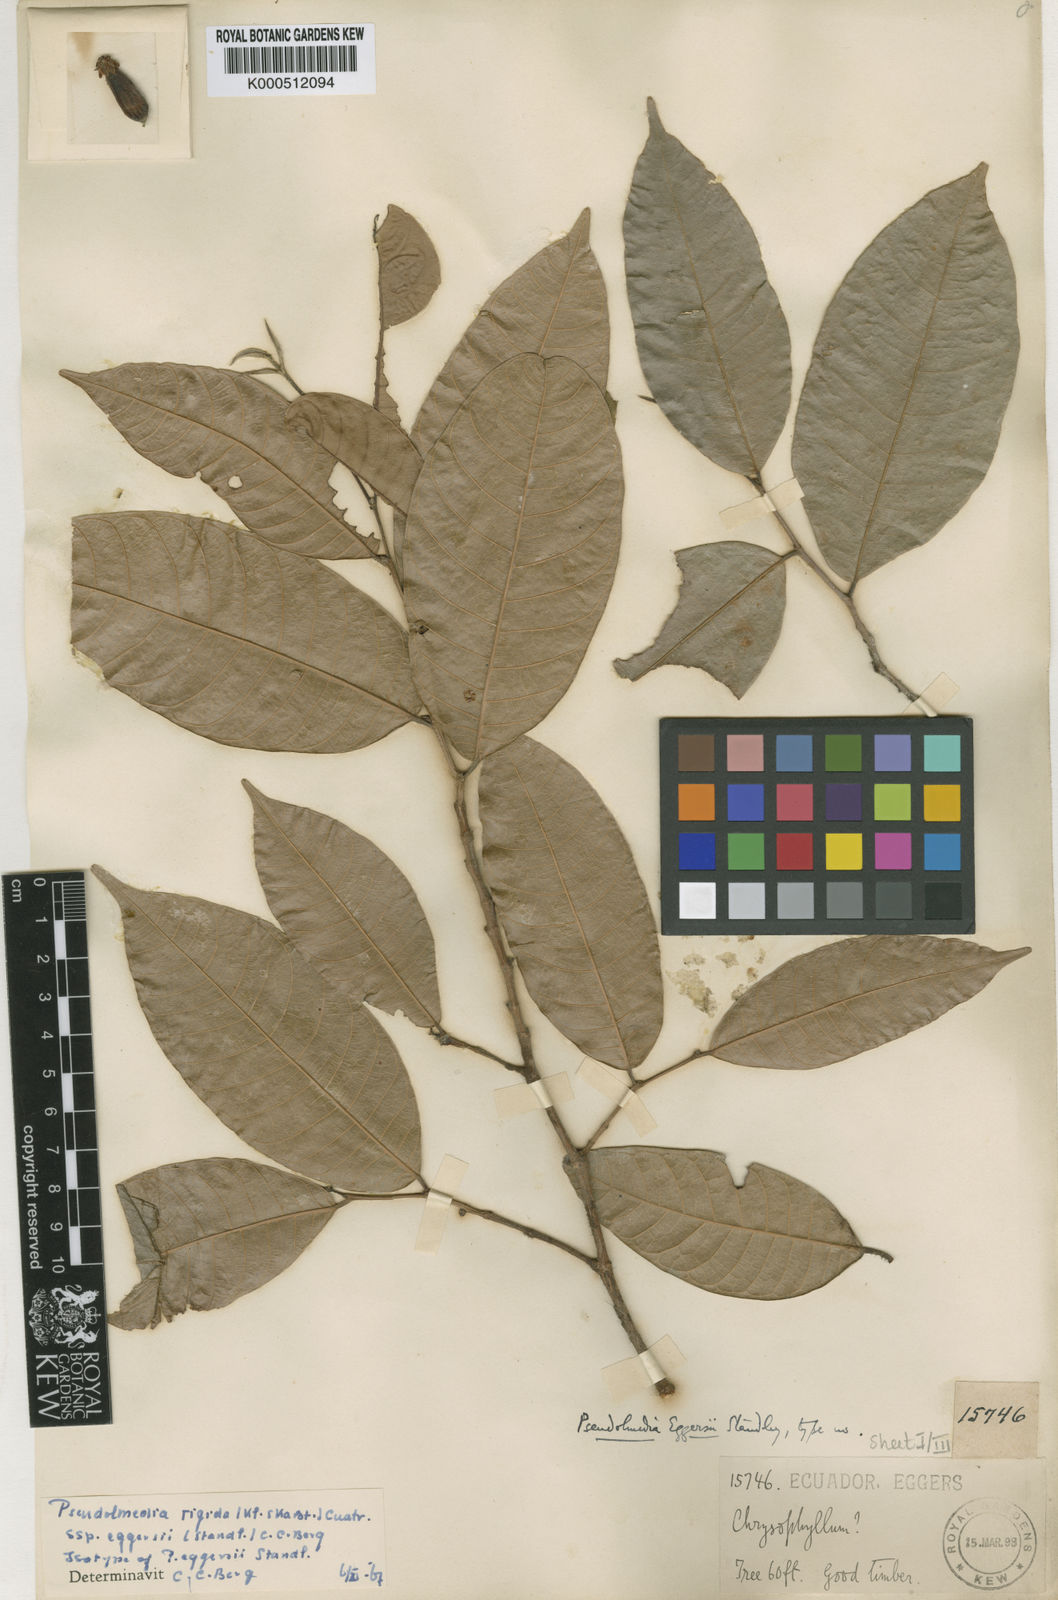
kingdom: Plantae
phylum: Tracheophyta
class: Magnoliopsida
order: Rosales
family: Moraceae
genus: Pseudolmedia
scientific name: Pseudolmedia rigida
